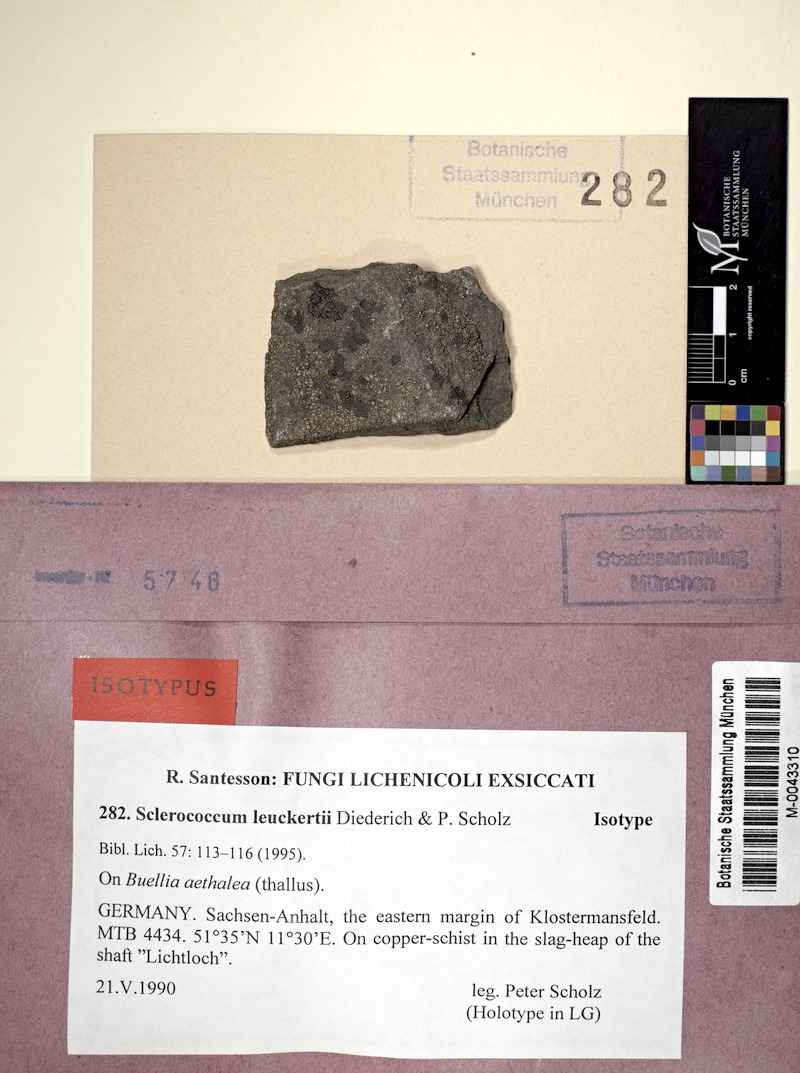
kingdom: Fungi
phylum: Ascomycota
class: Lecanoromycetes
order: Caliciales
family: Caliciaceae
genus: Buellia
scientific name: Buellia aethalea
